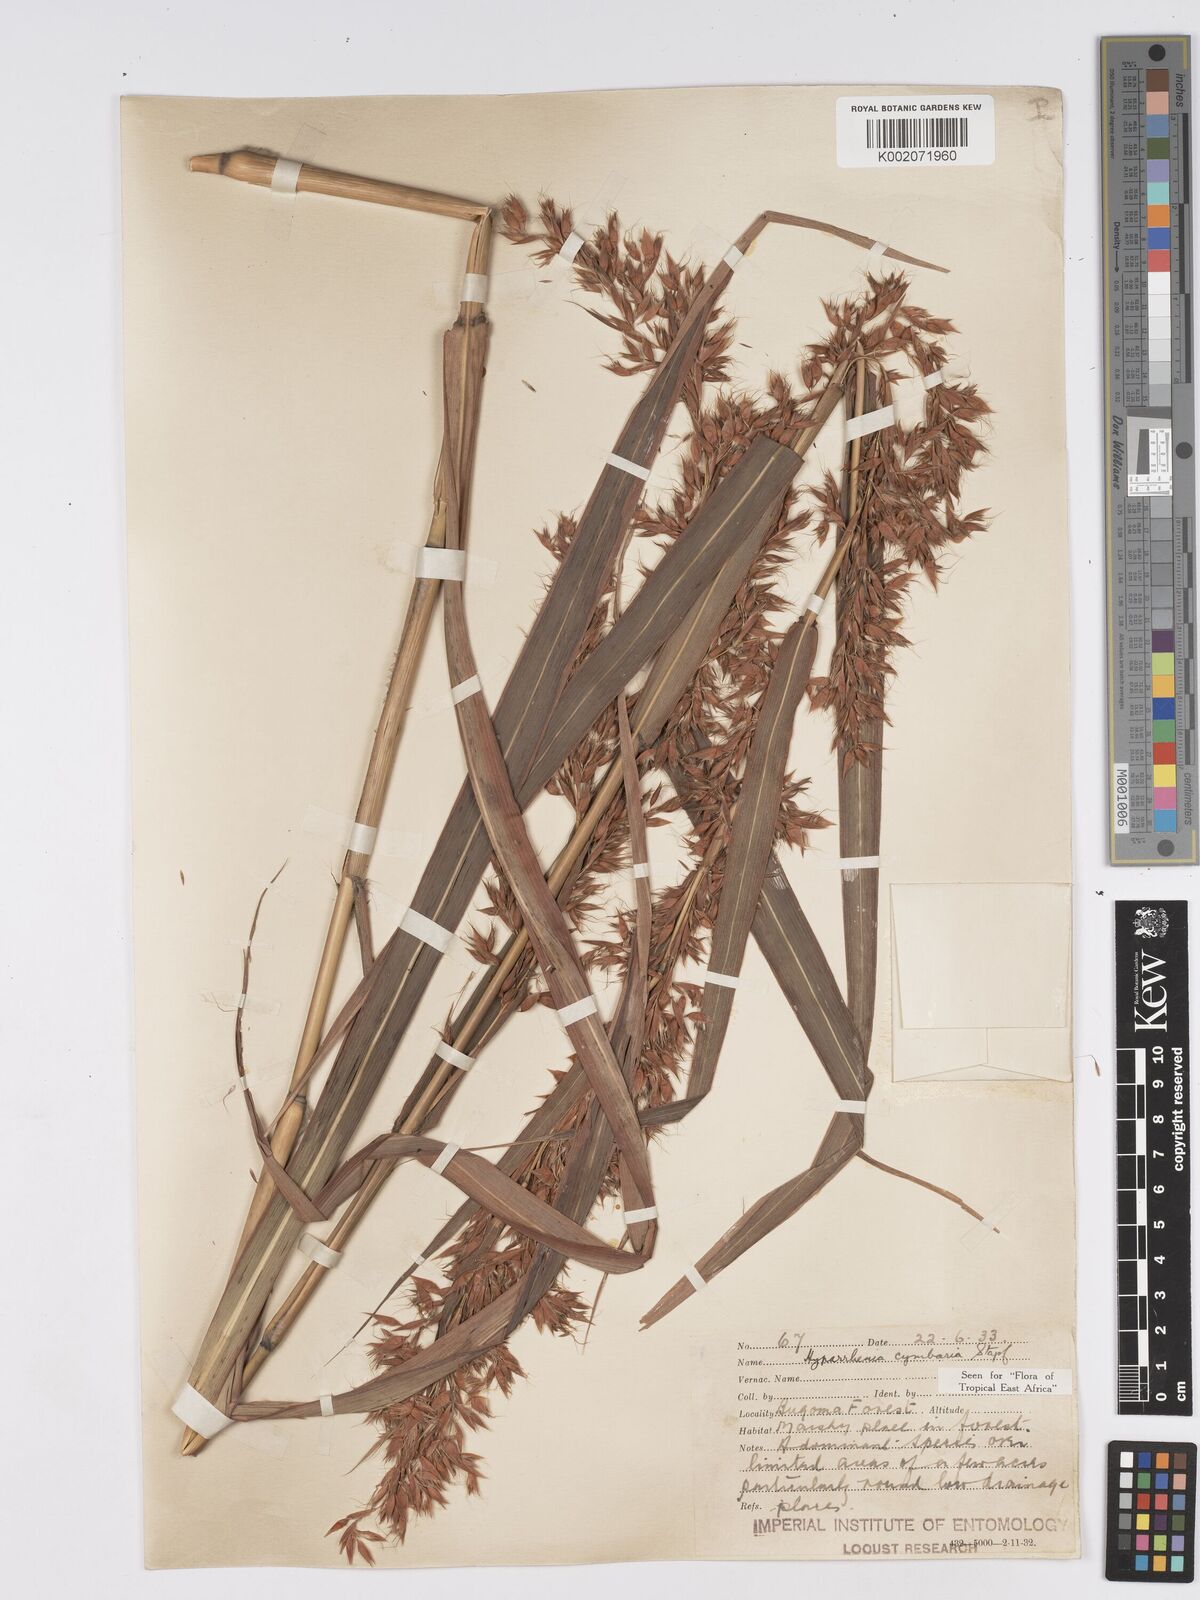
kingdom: Plantae
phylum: Tracheophyta
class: Liliopsida
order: Poales
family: Poaceae
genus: Hyparrhenia
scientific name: Hyparrhenia cymbaria
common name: Boat thatching grass
